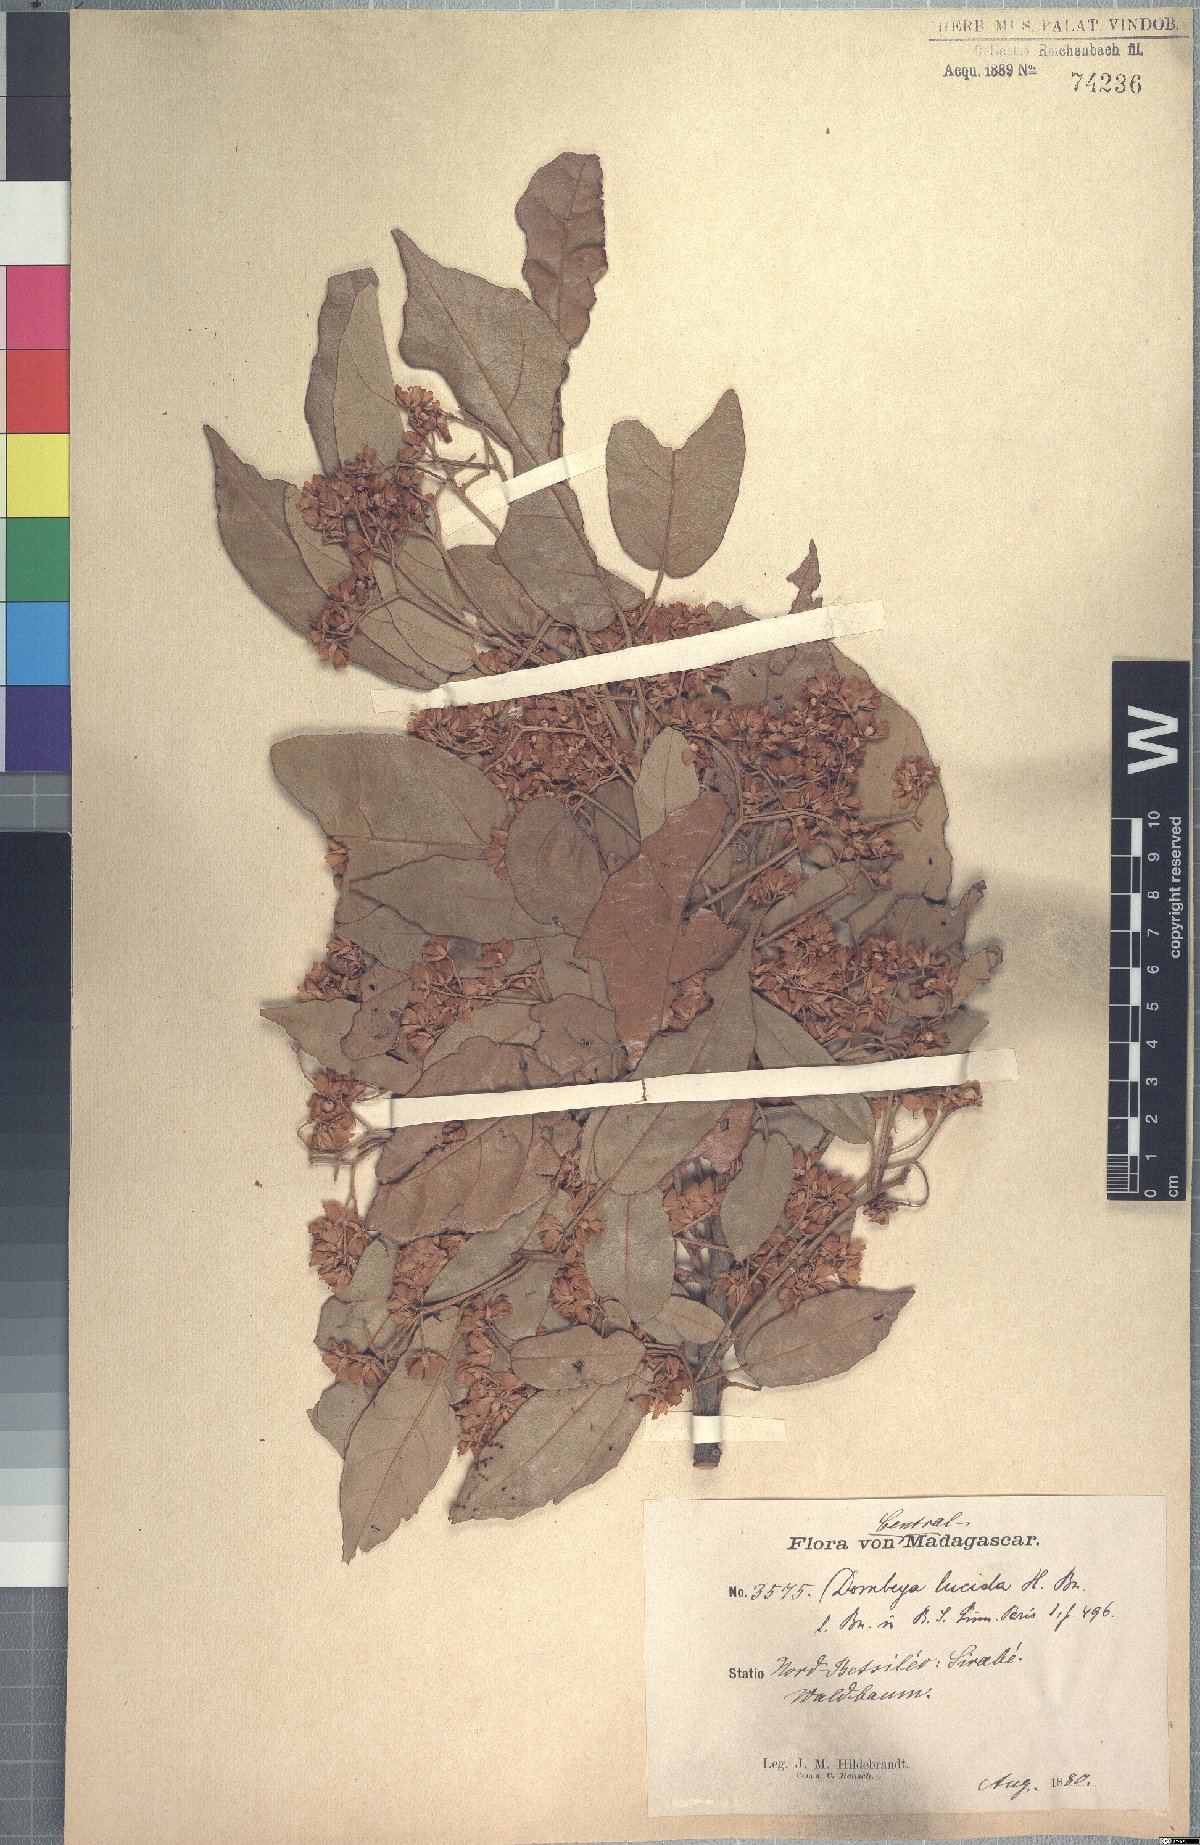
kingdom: Plantae
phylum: Tracheophyta
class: Magnoliopsida
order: Malvales
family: Malvaceae
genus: Dombeya
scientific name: Dombeya lucida
